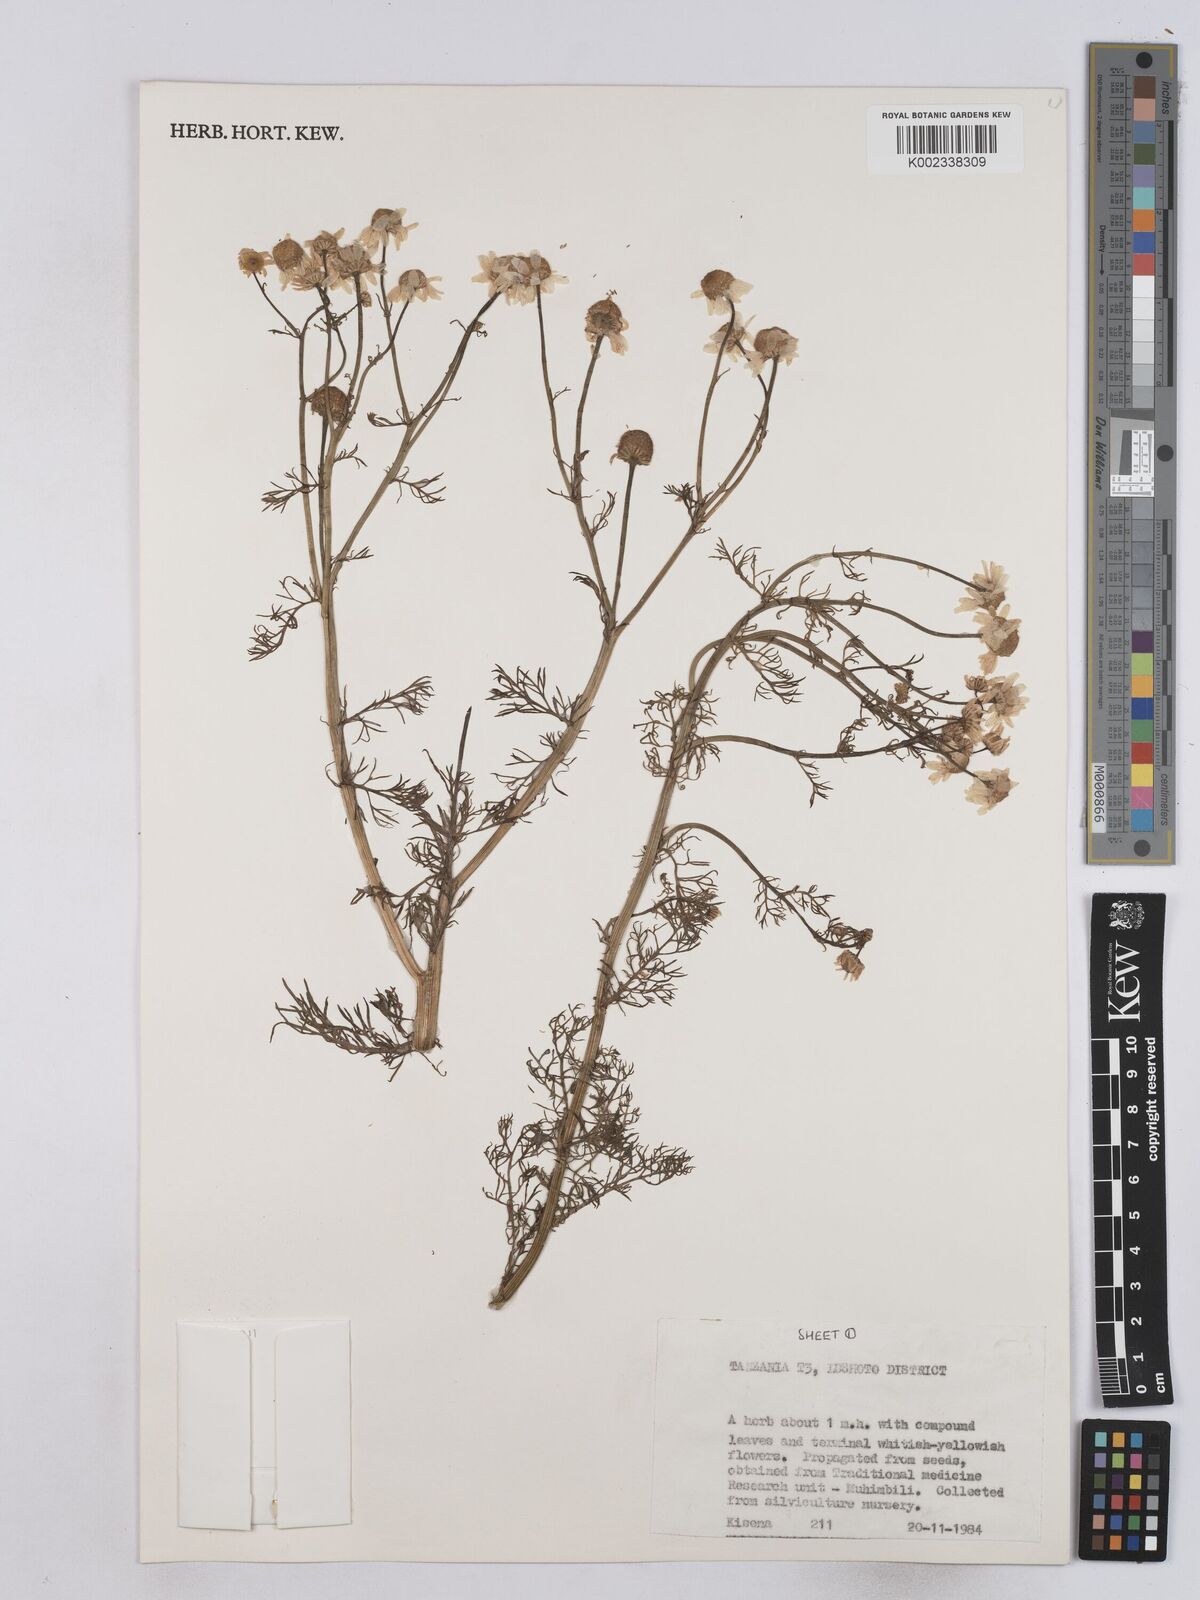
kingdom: Plantae
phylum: Tracheophyta
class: Magnoliopsida
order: Asterales
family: Asteraceae
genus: Matricaria
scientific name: Matricaria chamomilla
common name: Scented mayweed
